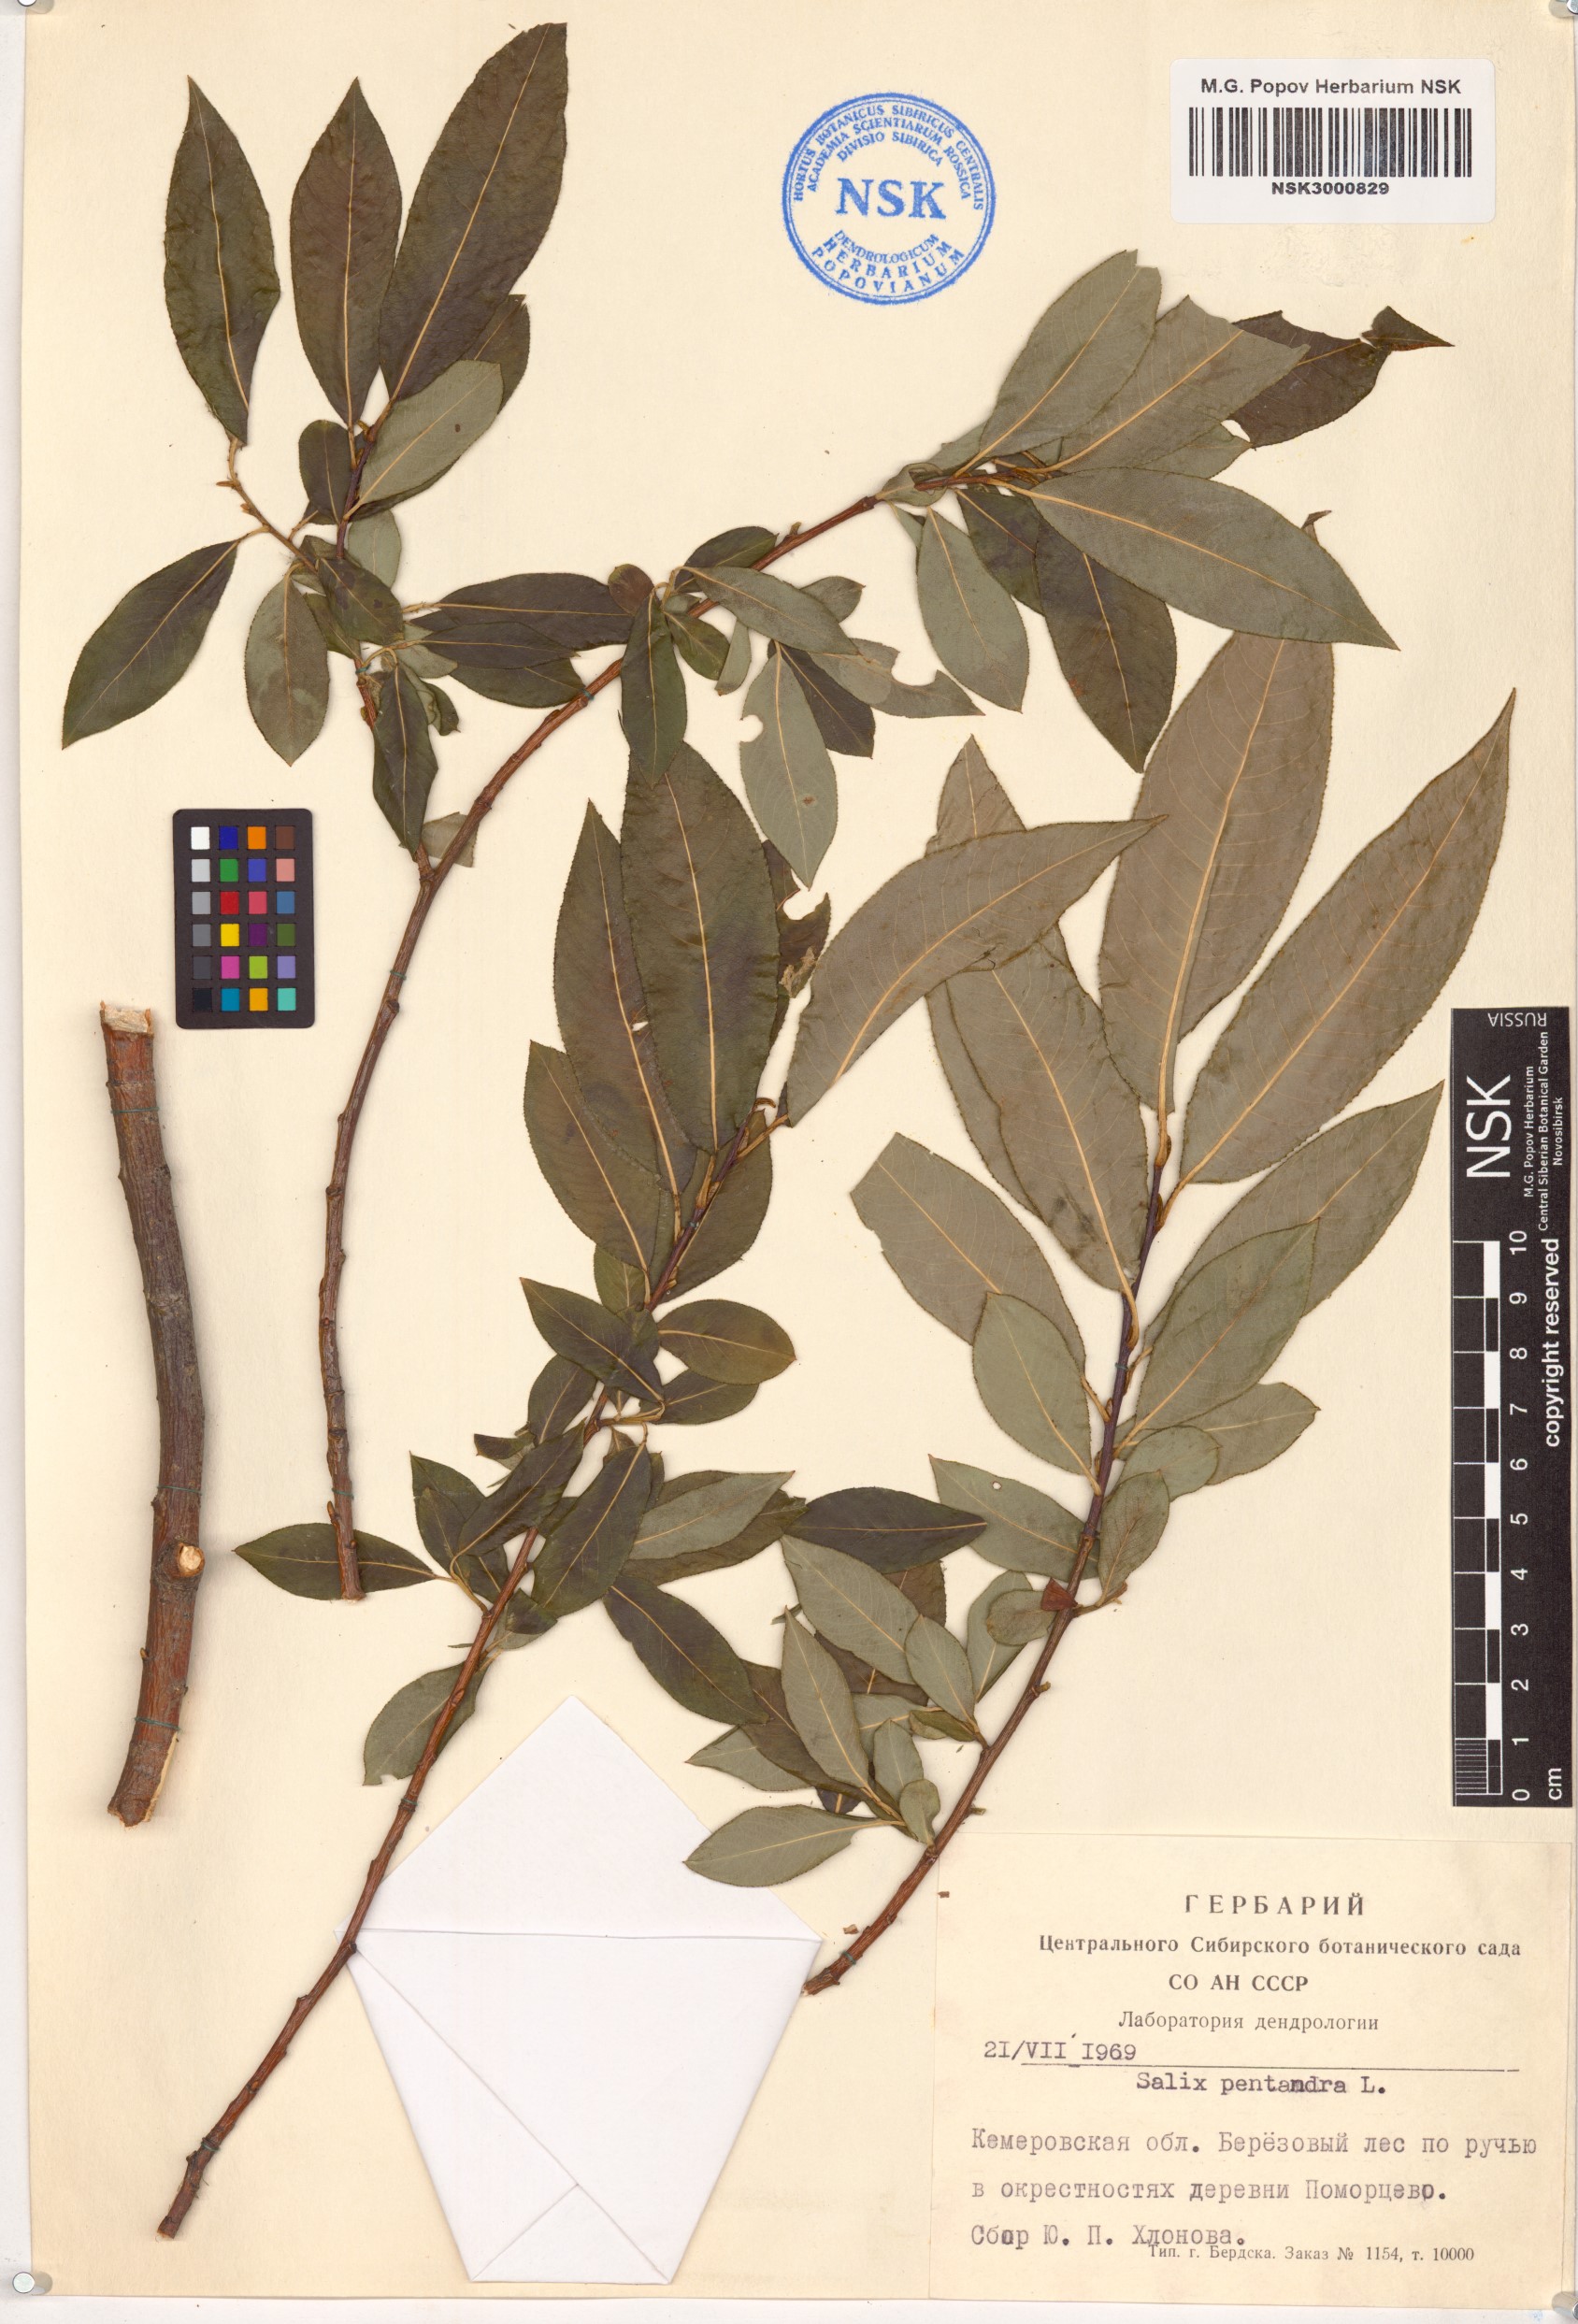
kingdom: Plantae
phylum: Tracheophyta
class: Magnoliopsida
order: Malpighiales
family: Salicaceae
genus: Salix
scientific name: Salix pentandra
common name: Bay willow
